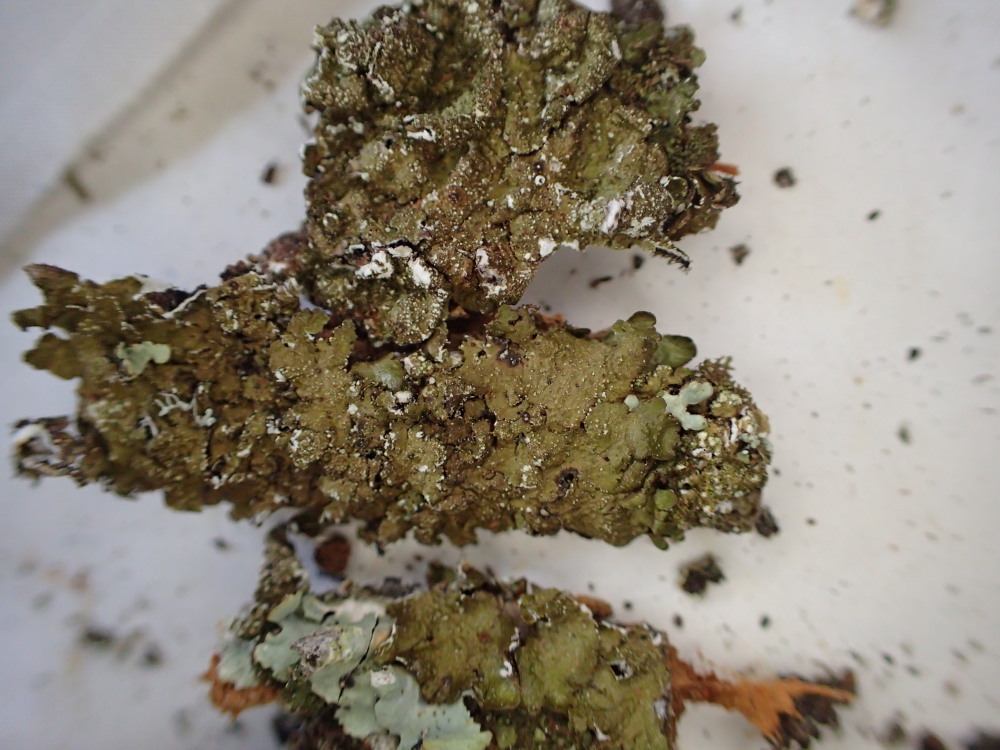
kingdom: Fungi
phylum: Ascomycota
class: Lecanoromycetes
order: Lecanorales
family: Parmeliaceae
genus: Melanelixia
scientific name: Melanelixia glabratula
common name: glinsende skållav
